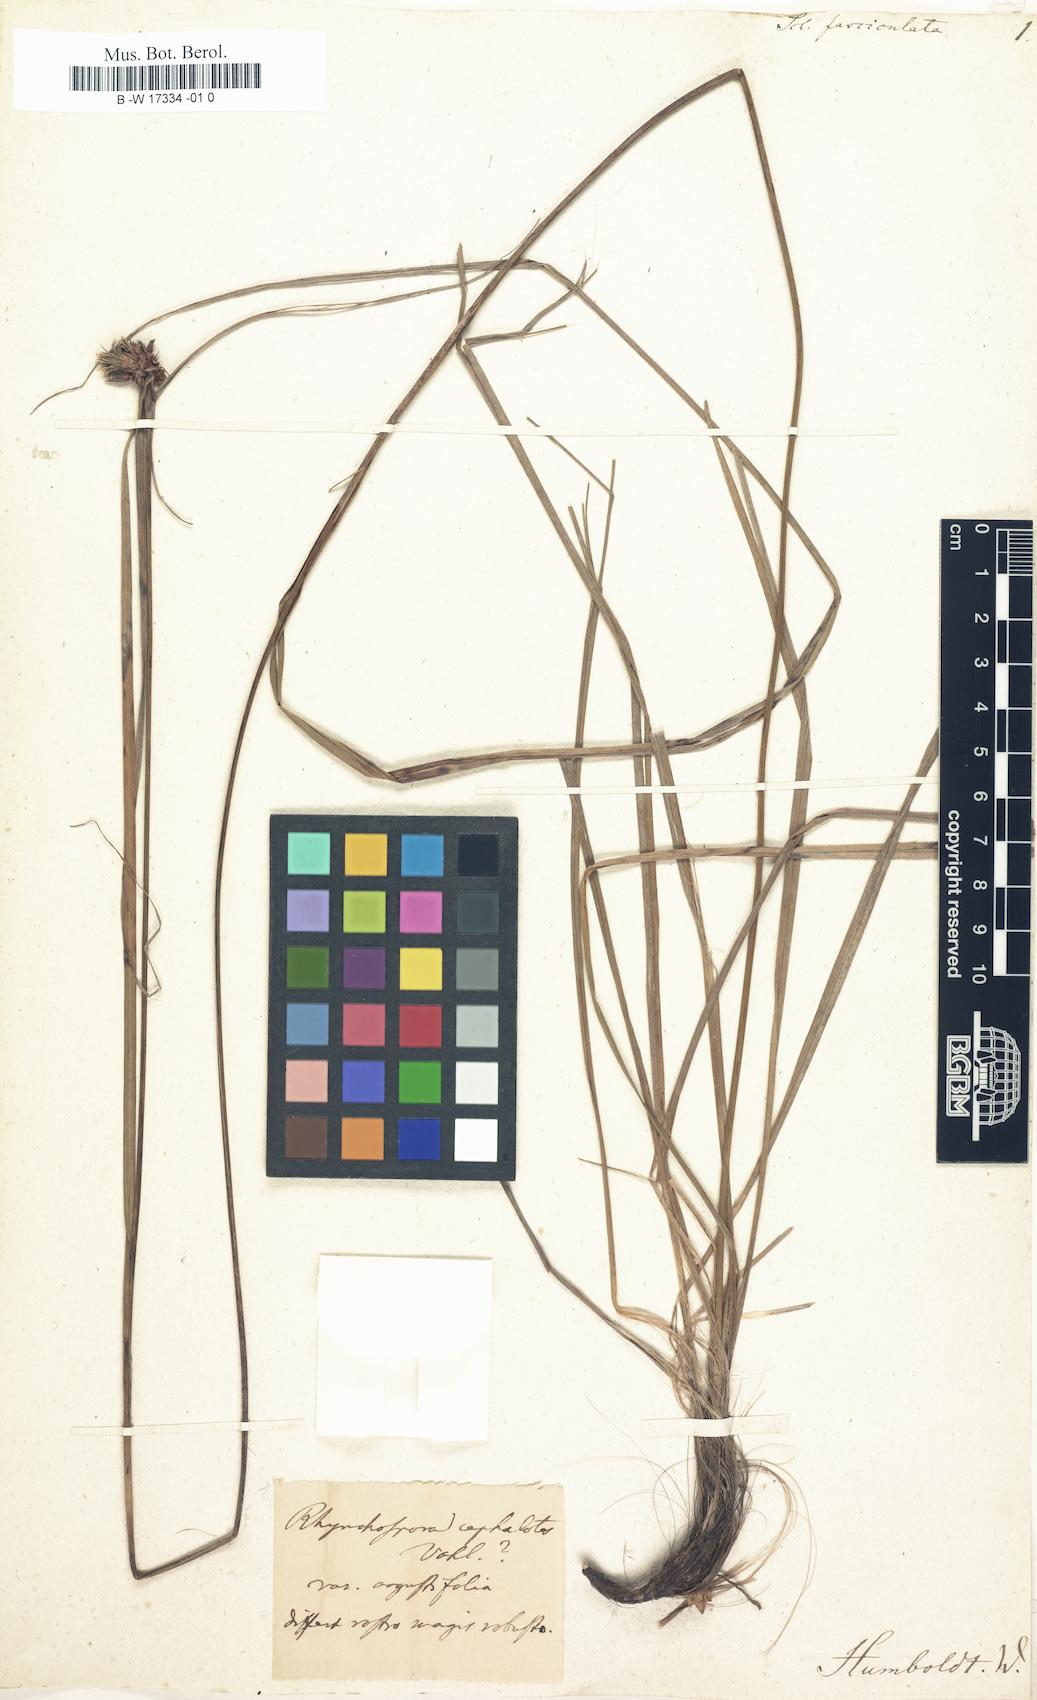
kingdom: Plantae
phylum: Tracheophyta
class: Liliopsida
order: Poales
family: Cyperaceae
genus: Rhynchospora
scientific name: Rhynchospora cephalotes
